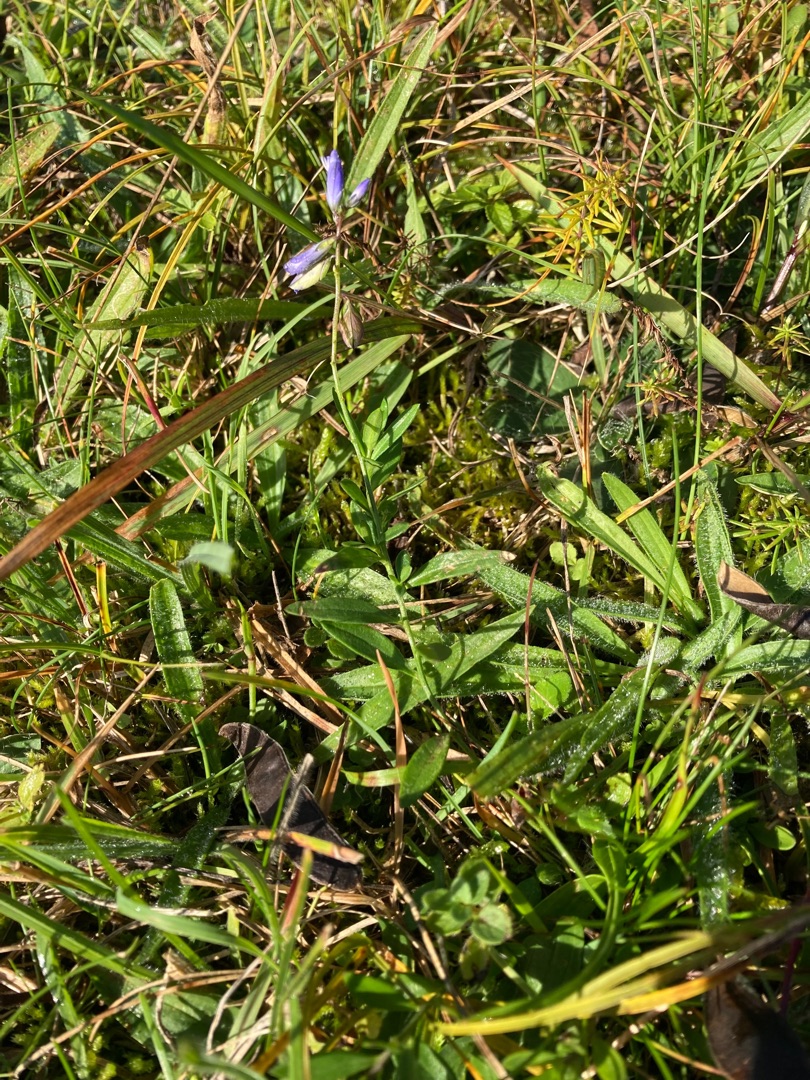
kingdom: Plantae
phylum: Tracheophyta
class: Magnoliopsida
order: Fabales
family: Polygalaceae
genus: Polygala
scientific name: Polygala vulgaris
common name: Almindelig mælkeurt
